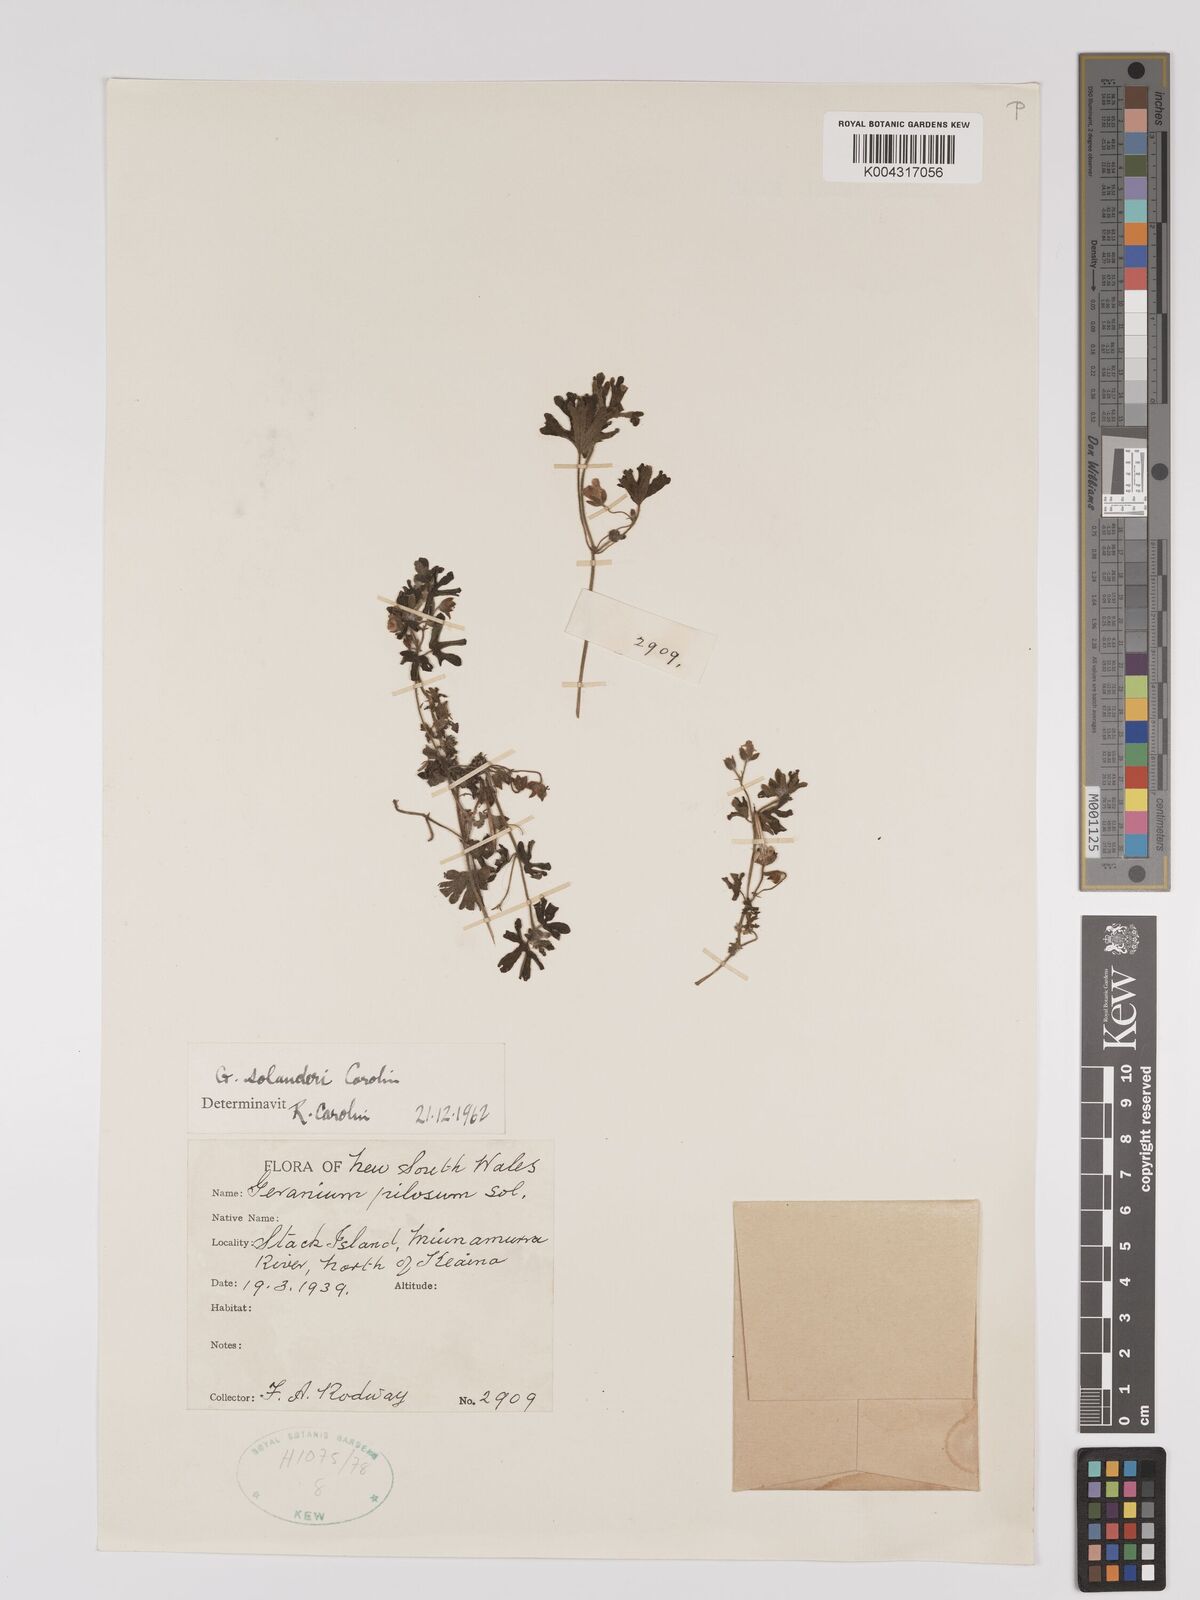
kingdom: Plantae
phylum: Tracheophyta
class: Magnoliopsida
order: Geraniales
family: Geraniaceae
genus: Geranium
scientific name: Geranium solanderi
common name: Solander's geranium
